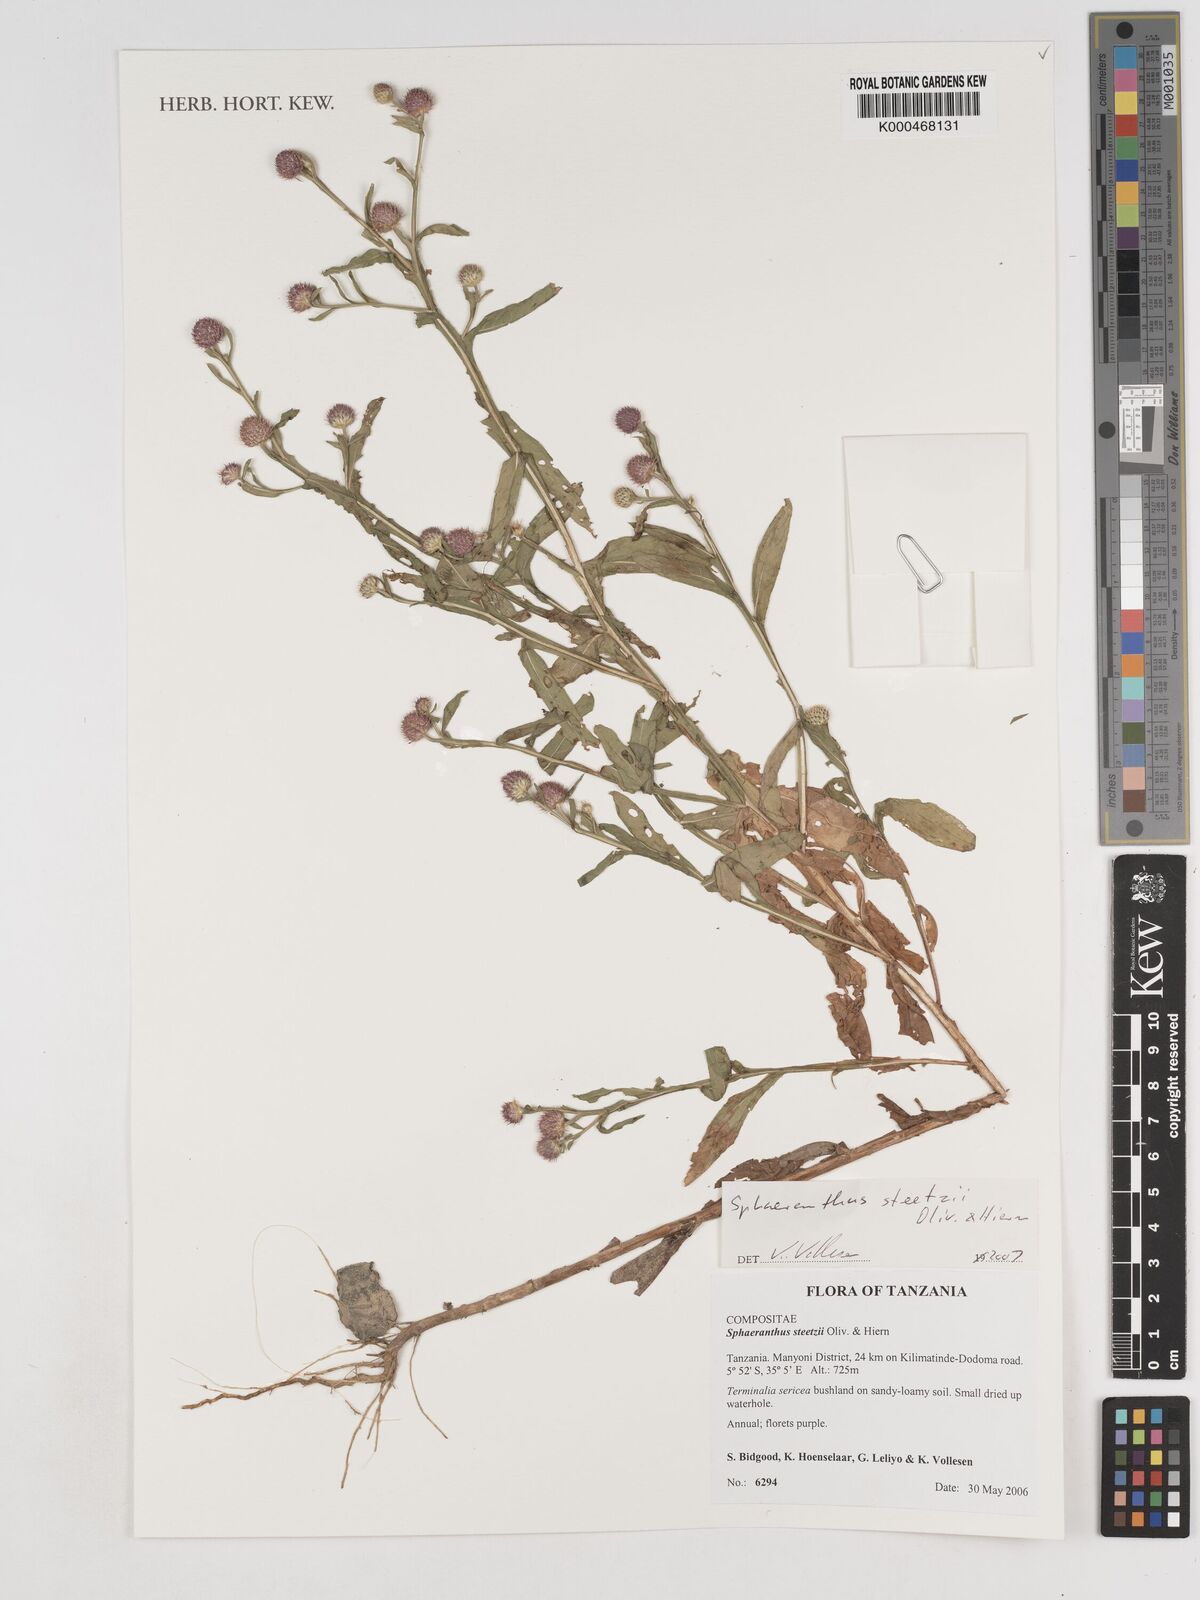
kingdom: Plantae
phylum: Tracheophyta
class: Magnoliopsida
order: Asterales
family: Asteraceae
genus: Sphaeranthus
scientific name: Sphaeranthus steetzii
